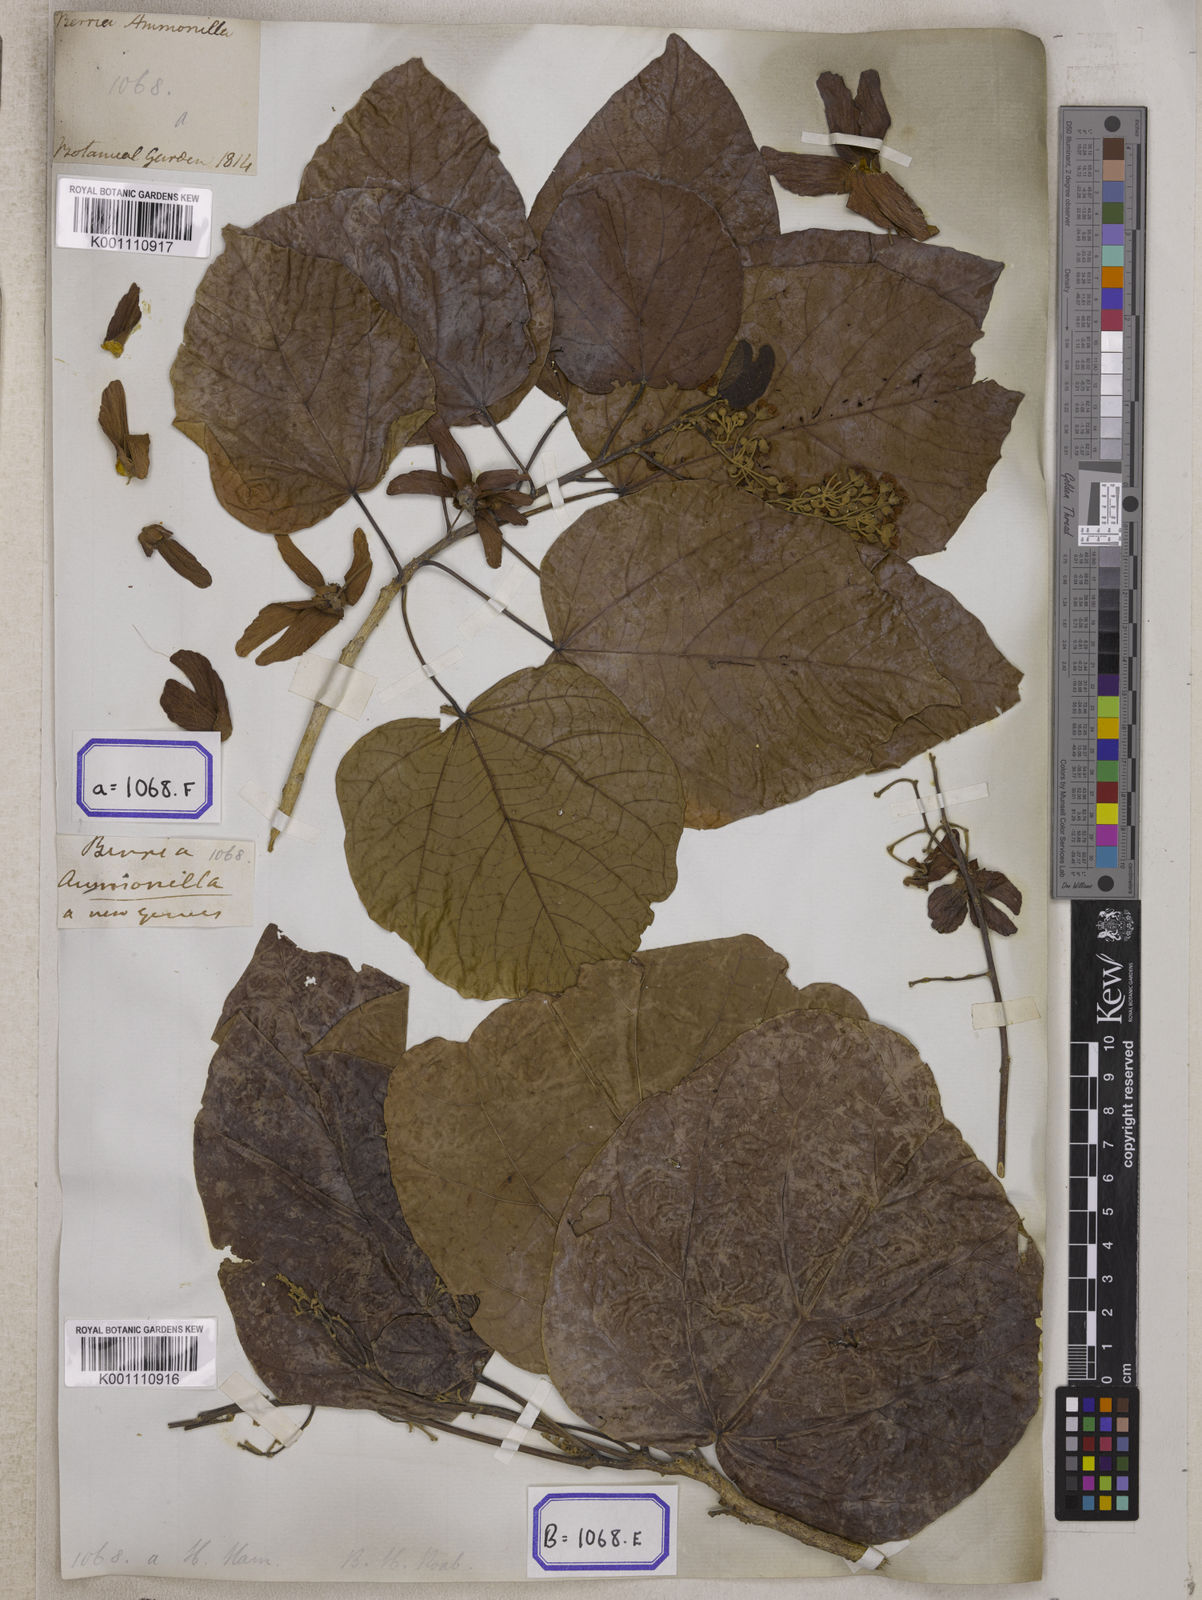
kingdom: Plantae
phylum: Tracheophyta
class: Magnoliopsida
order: Malvales
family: Malvaceae
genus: Berrya
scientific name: Berrya cordifolia
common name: Trincomalee
